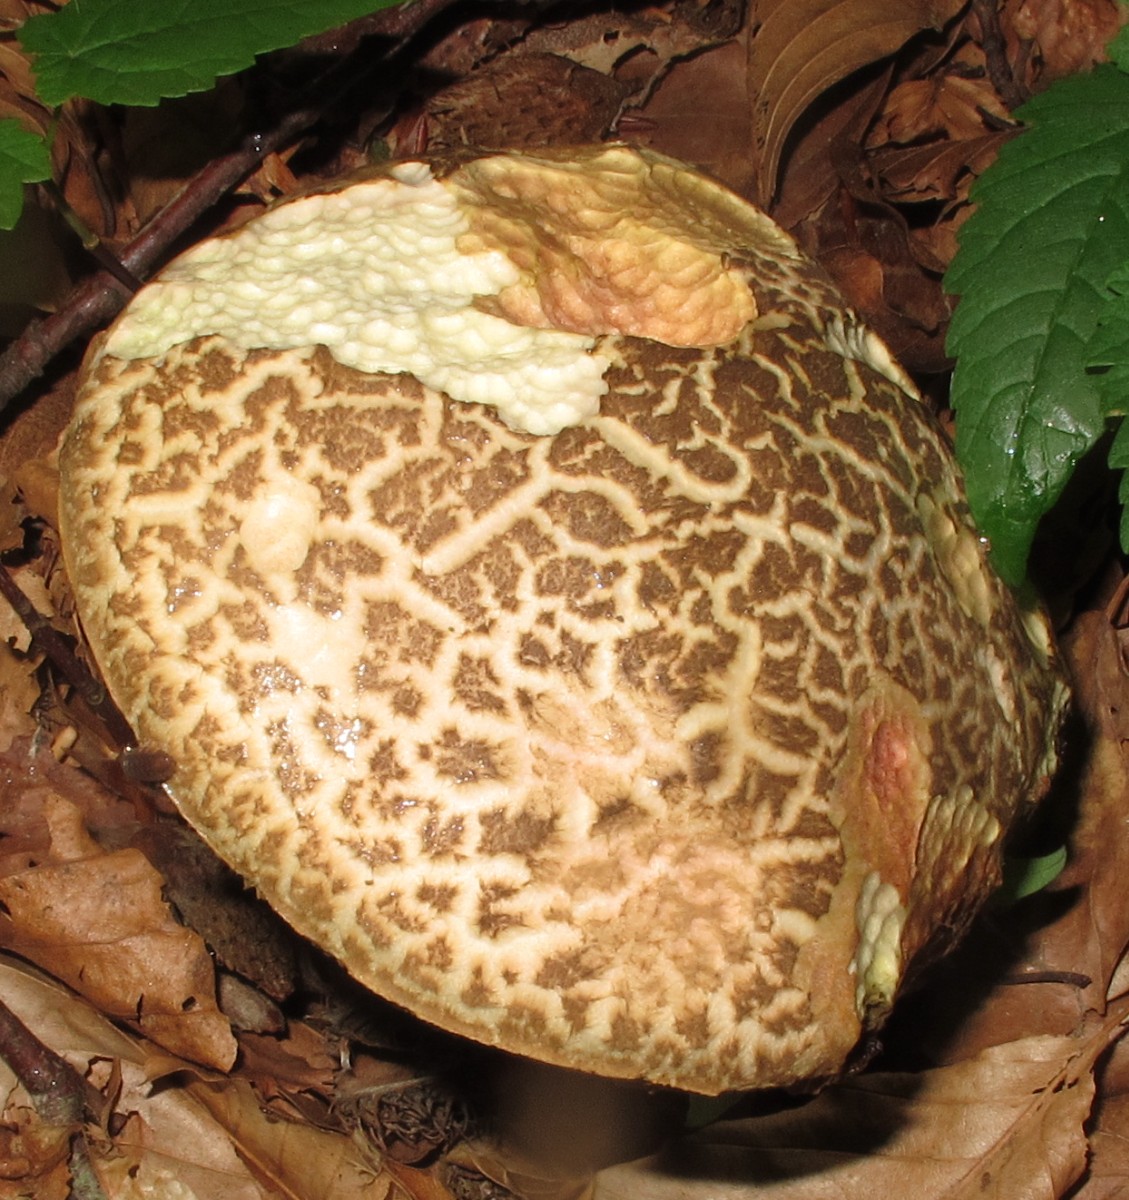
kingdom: Fungi
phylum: Basidiomycota
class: Agaricomycetes
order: Boletales
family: Boletaceae
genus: Xerocomellus
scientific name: Xerocomellus porosporus
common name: hvidsprukken rørhat
